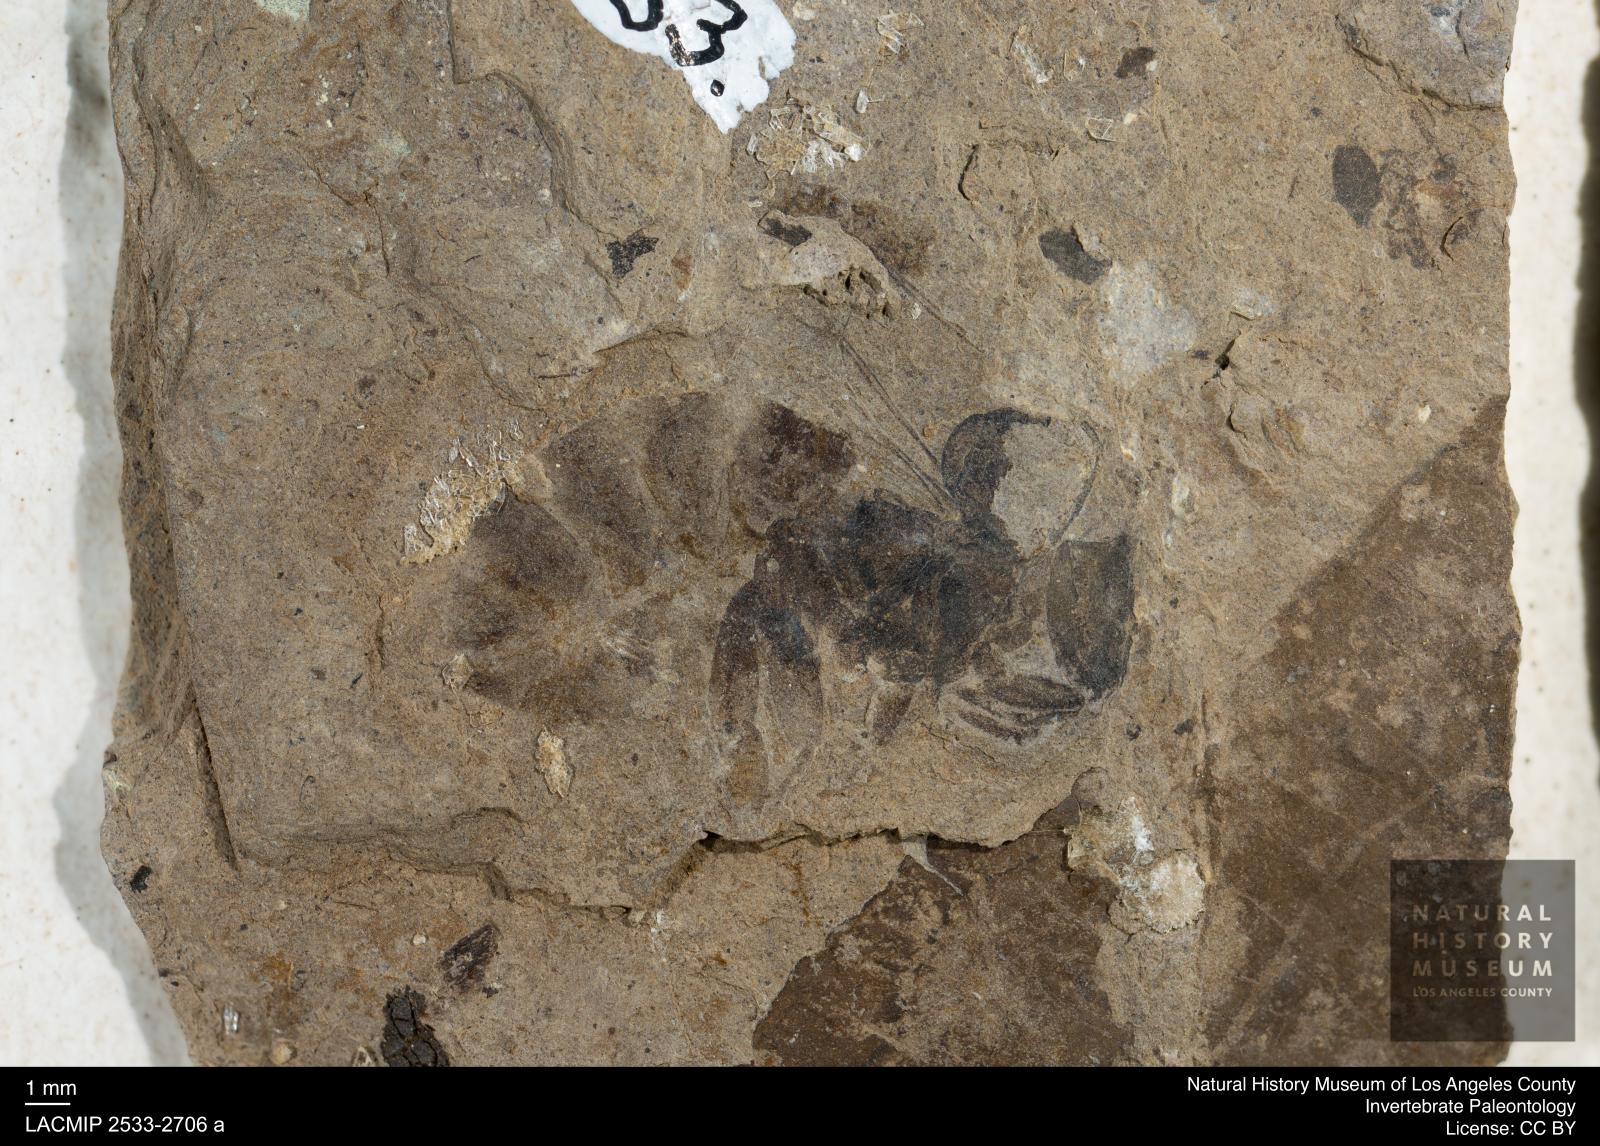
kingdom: Animalia
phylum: Arthropoda
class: Insecta
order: Hymenoptera
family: Apidae
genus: Apis
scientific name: Apis henshawi
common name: Henshaw's honey bee
